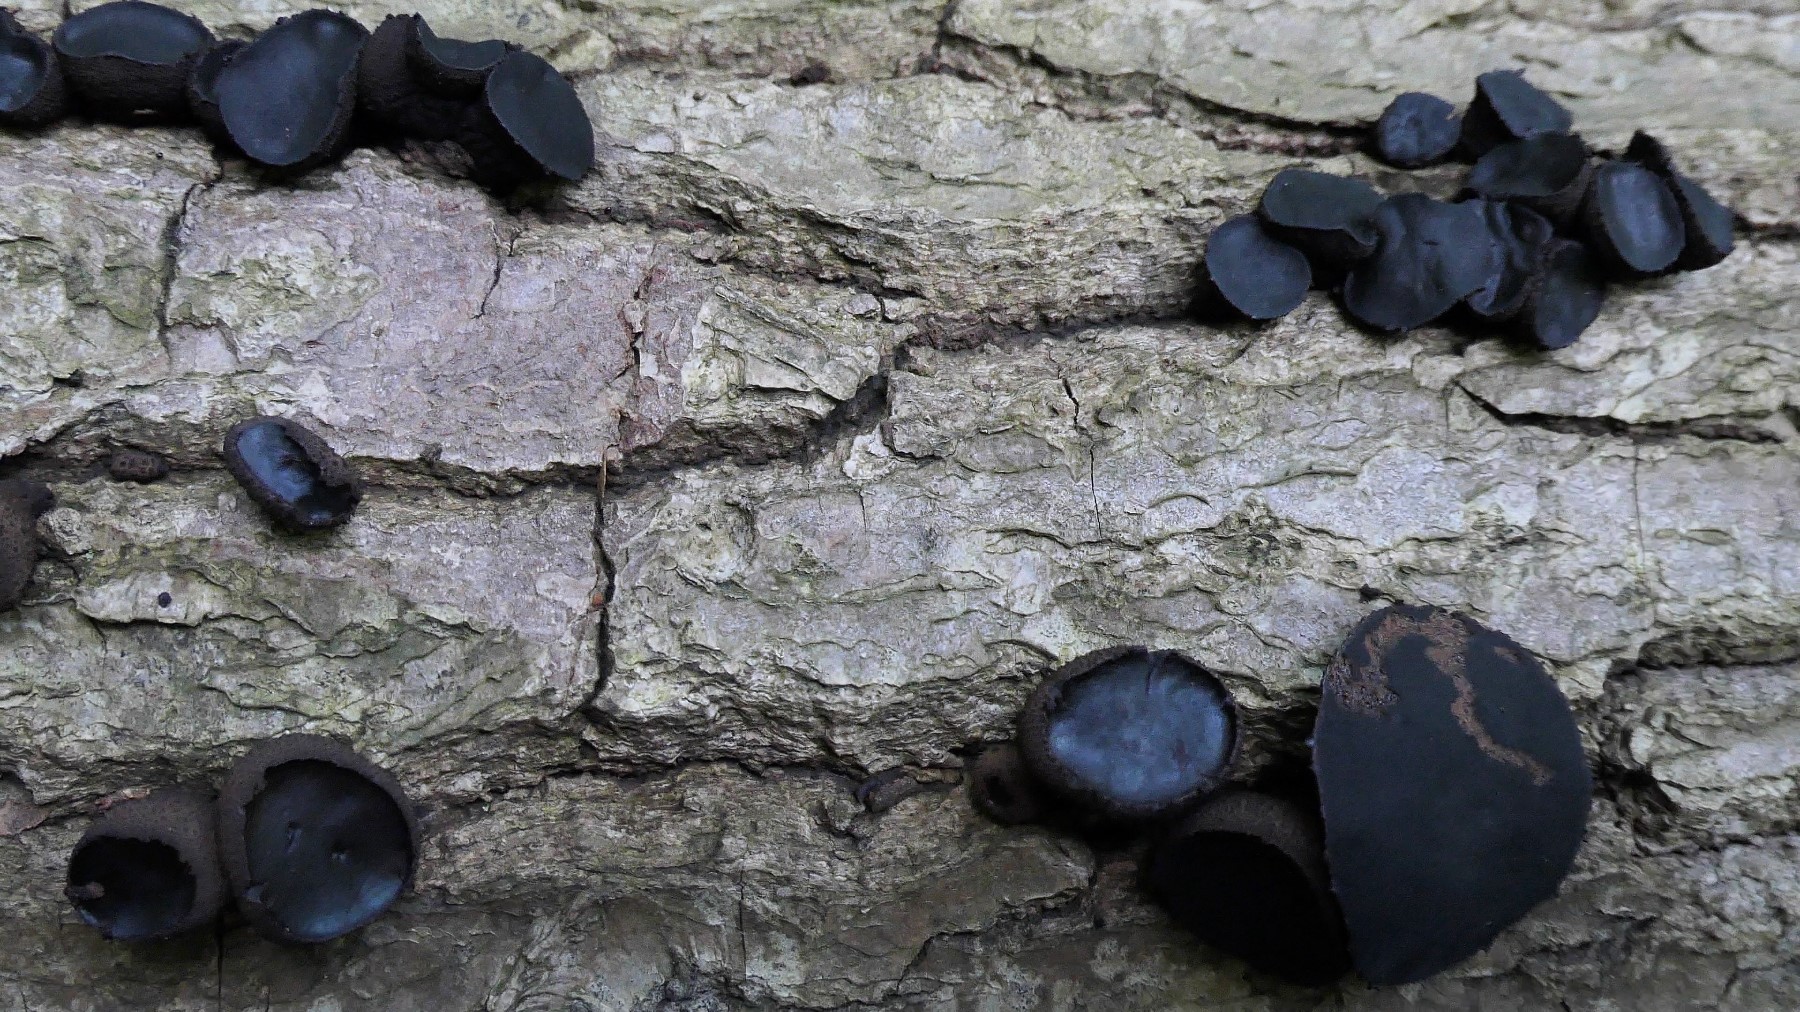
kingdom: Fungi
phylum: Ascomycota
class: Leotiomycetes
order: Phacidiales
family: Phacidiaceae
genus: Bulgaria
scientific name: Bulgaria inquinans
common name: afsmittende topsvamp
